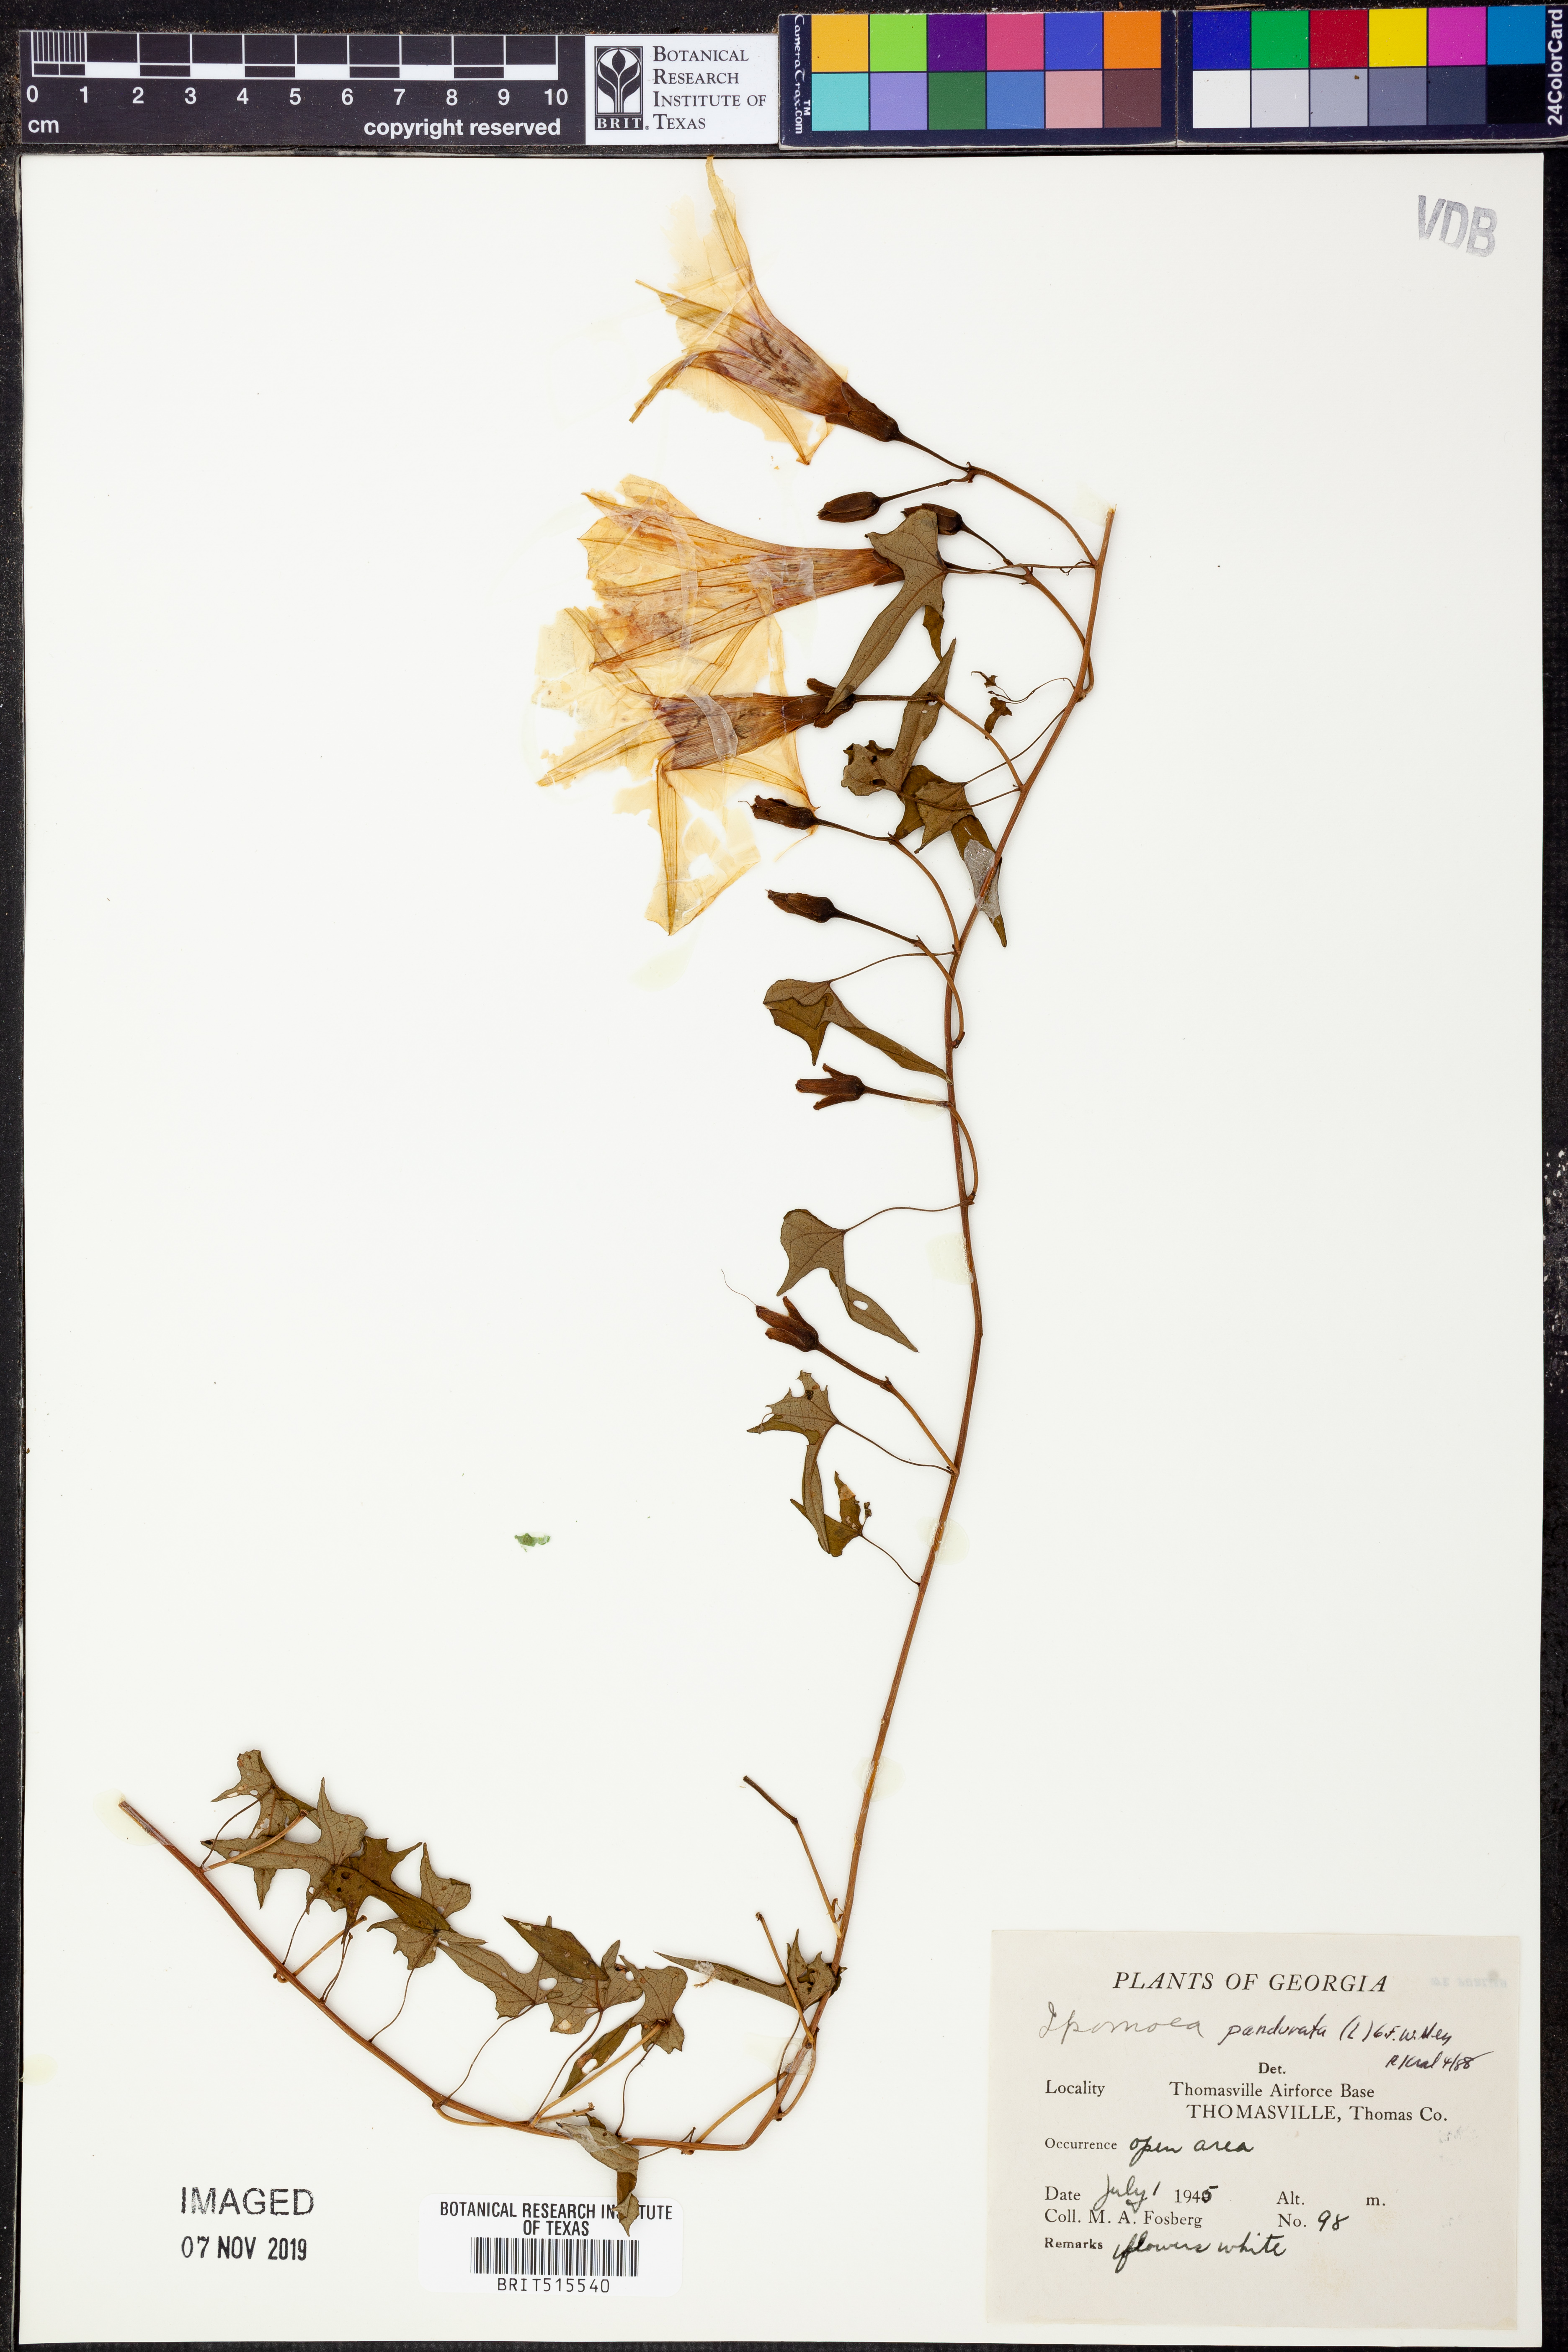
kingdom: Plantae
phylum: Tracheophyta
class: Magnoliopsida
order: Solanales
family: Convolvulaceae
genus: Ipomoea
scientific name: Ipomoea pandurata
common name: Man-of-the-earth
